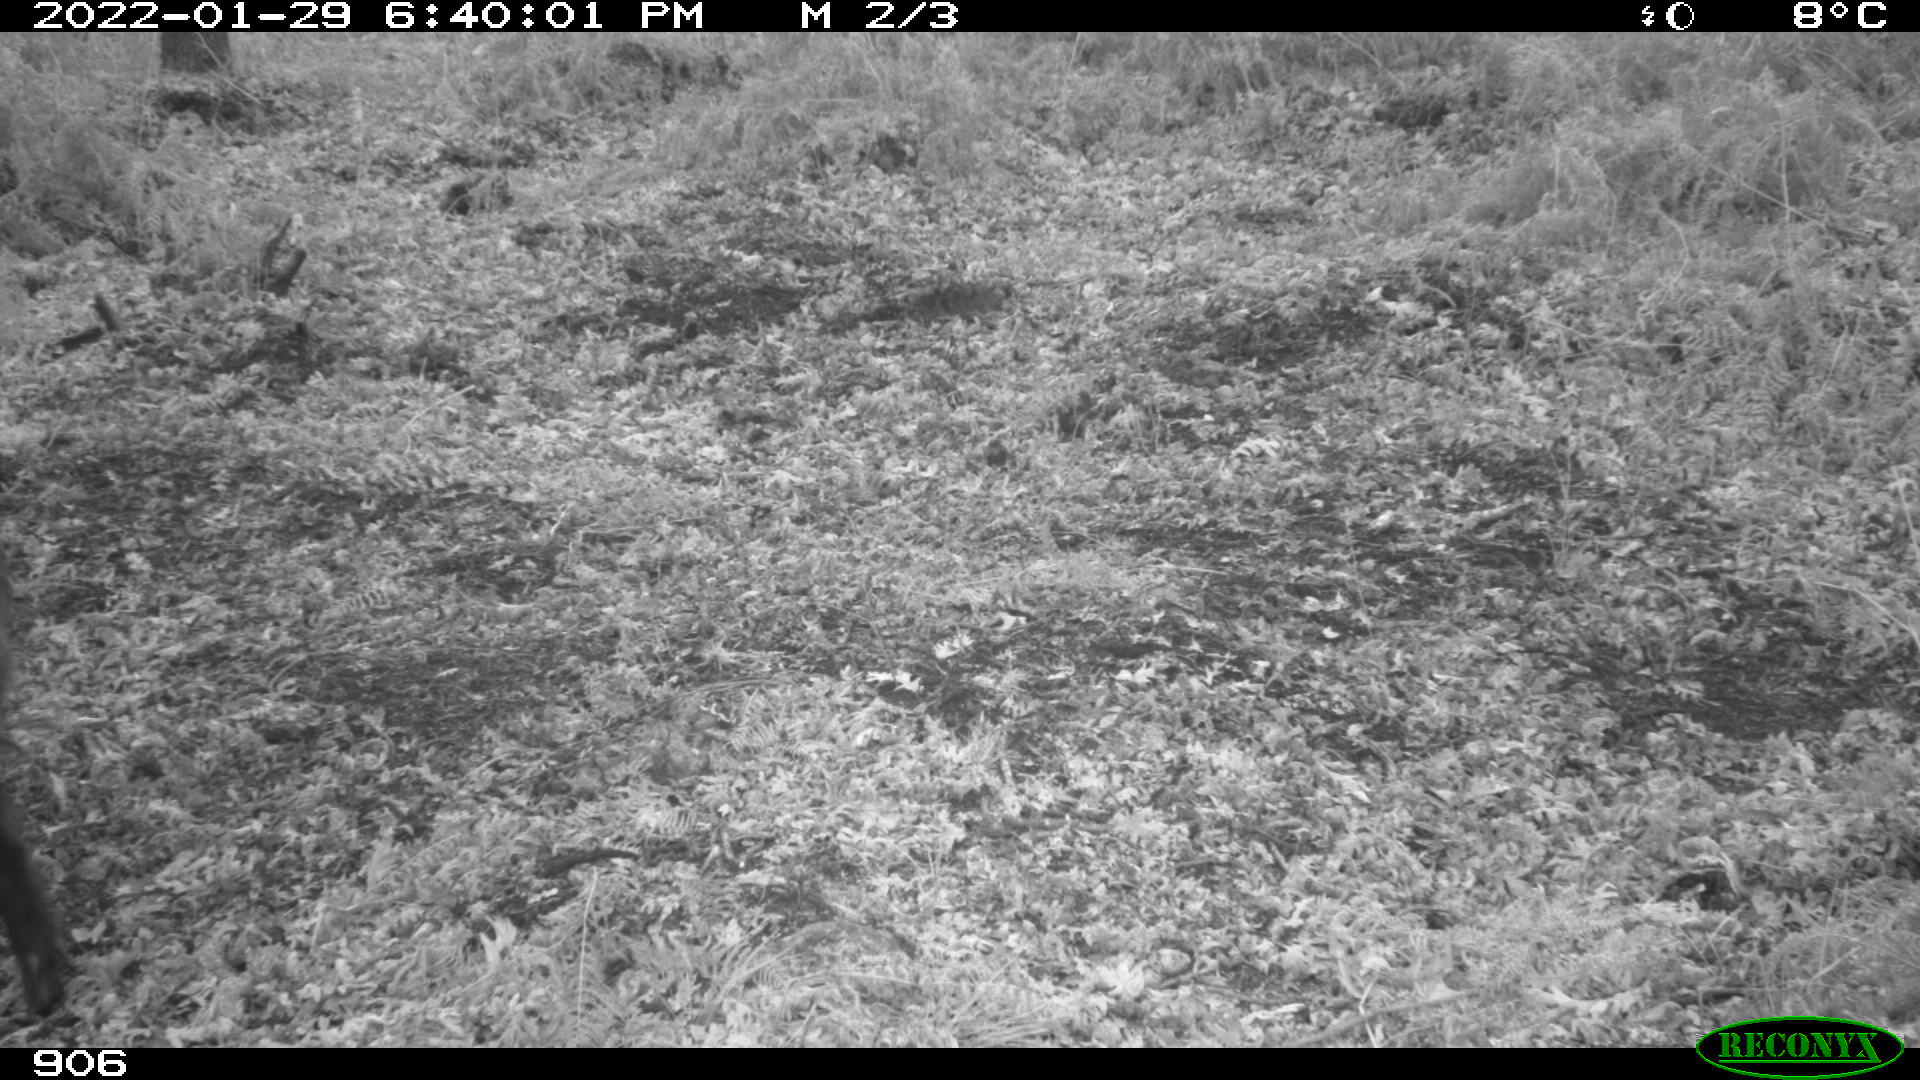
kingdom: Animalia
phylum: Chordata
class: Mammalia
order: Artiodactyla
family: Suidae
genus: Sus
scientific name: Sus scrofa
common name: Wild boar
